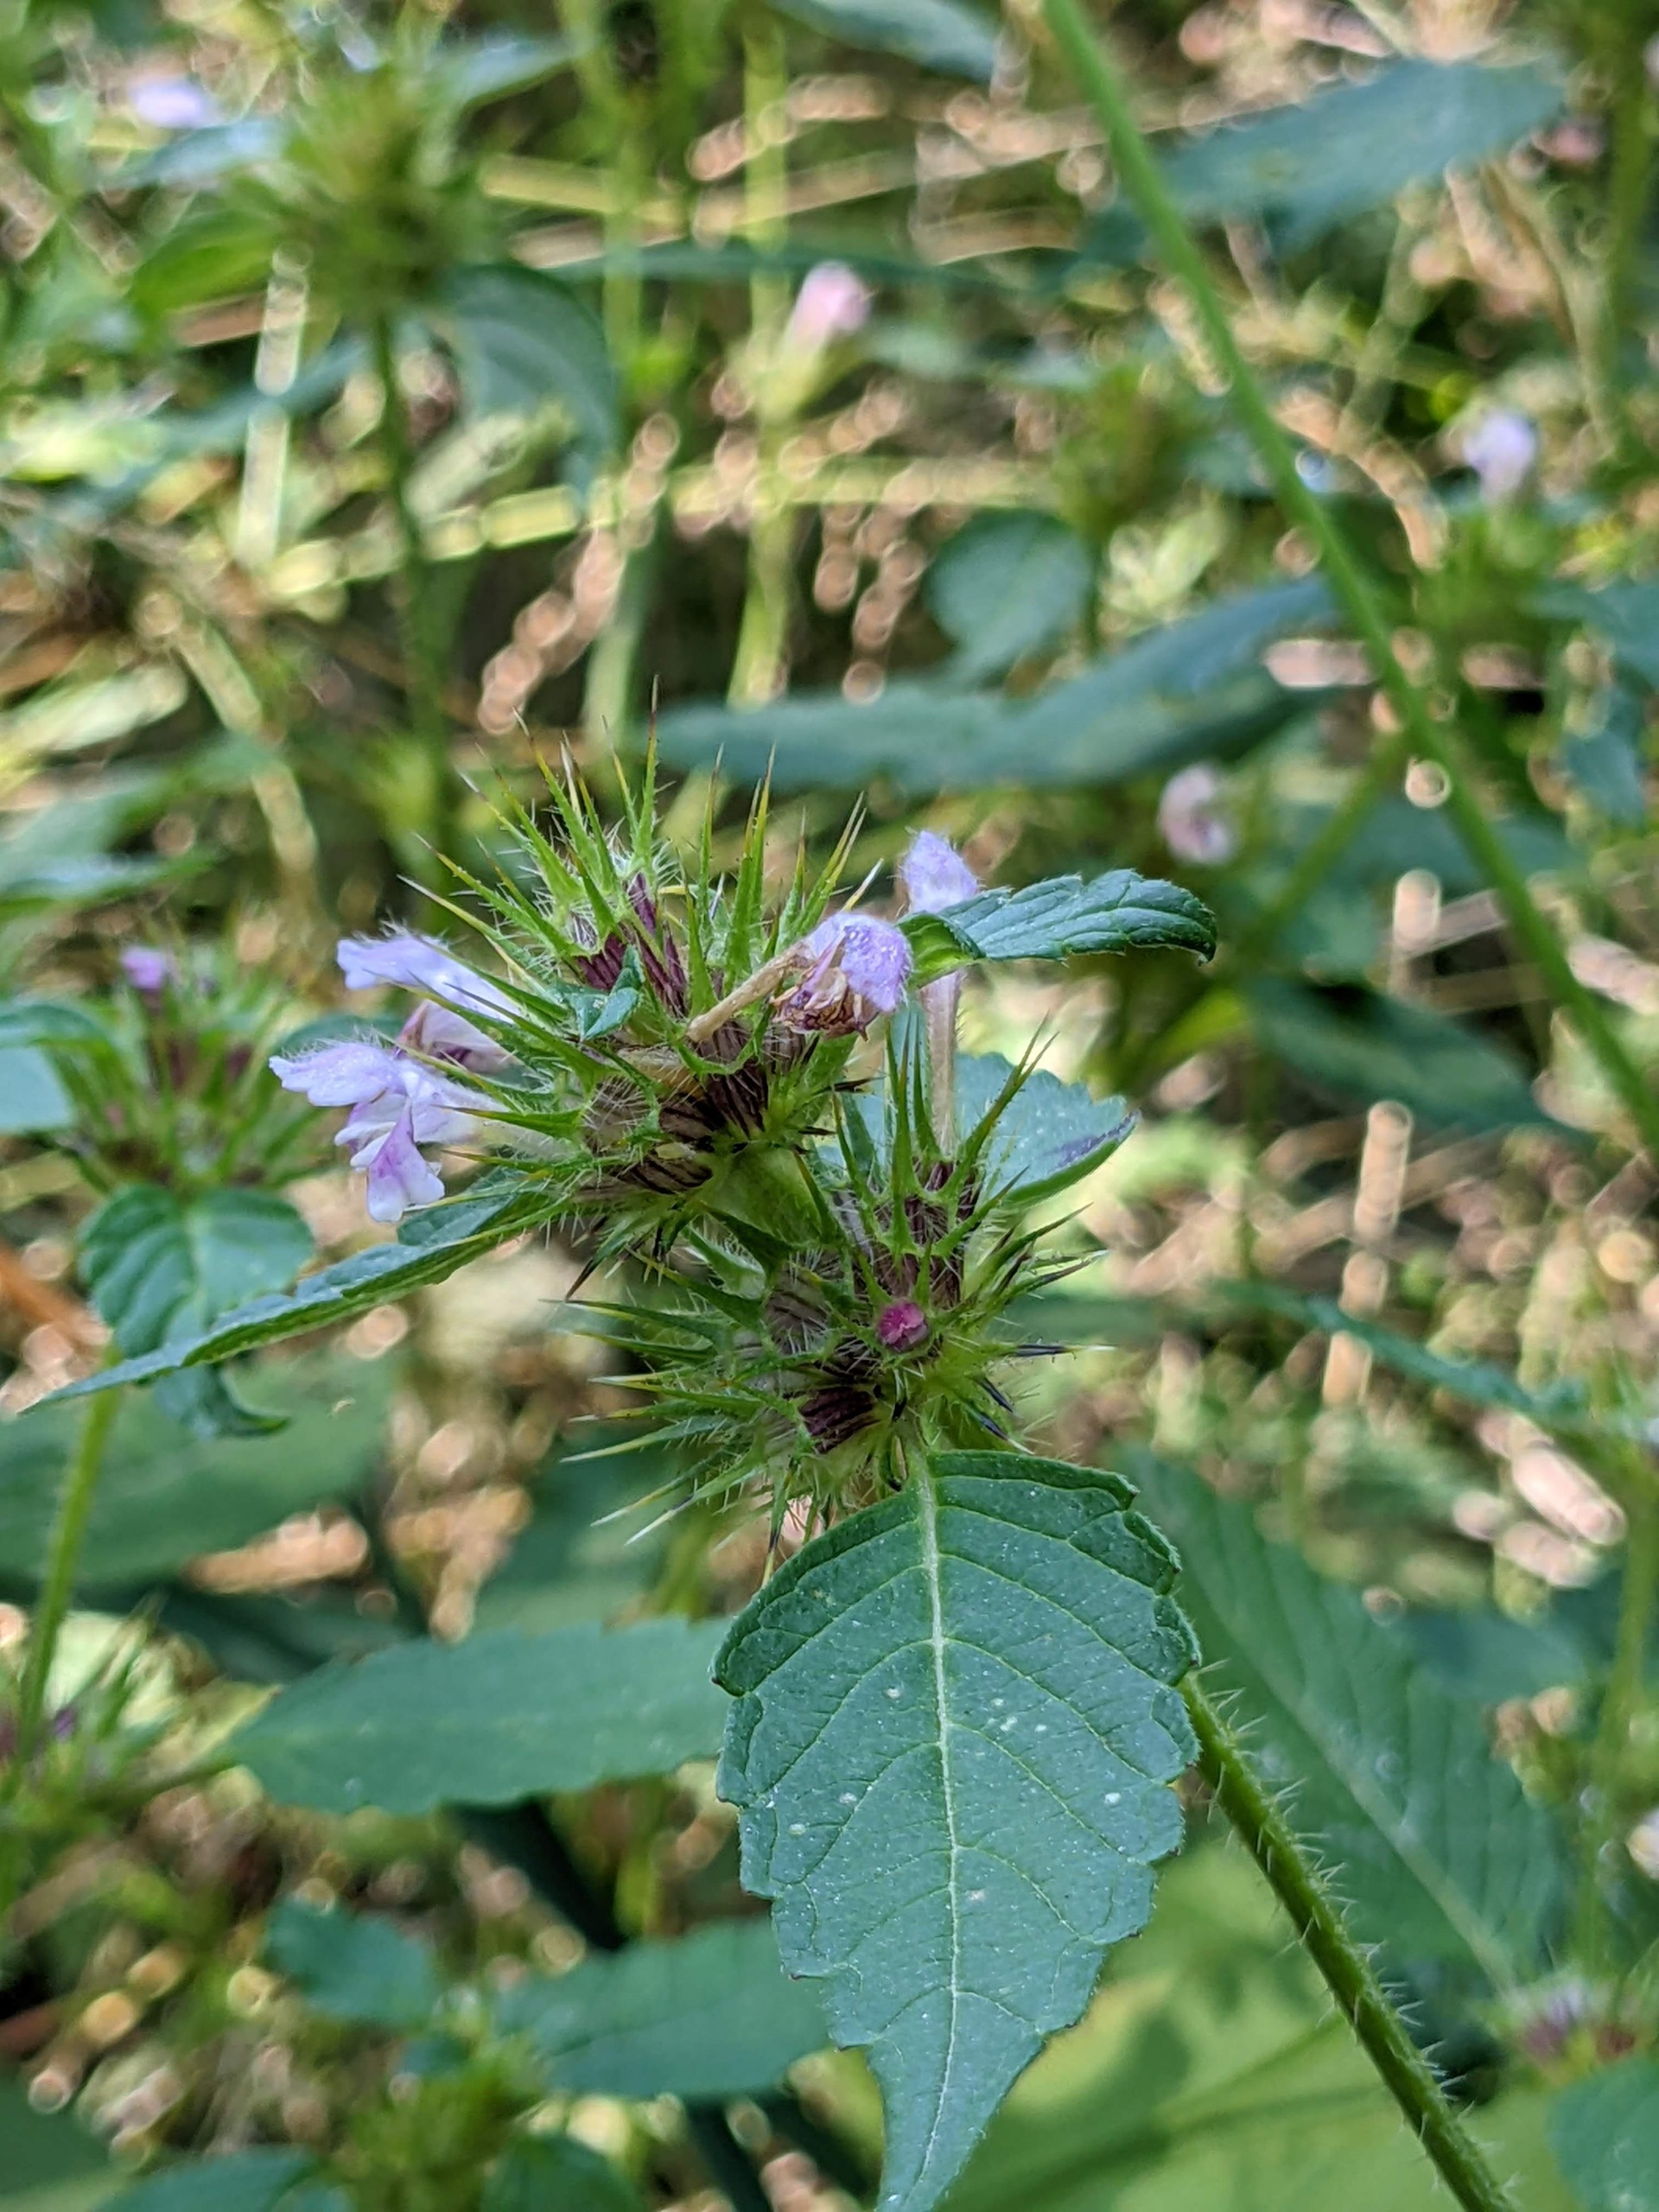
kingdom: Plantae
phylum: Tracheophyta
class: Magnoliopsida
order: Lamiales
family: Lamiaceae
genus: Galeopsis
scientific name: Galeopsis tetrahit
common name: Almindelig hanekro
